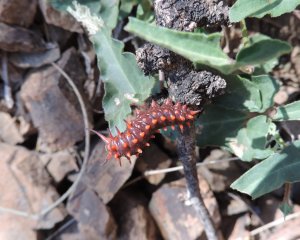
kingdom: Animalia
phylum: Arthropoda
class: Insecta
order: Lepidoptera
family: Papilionidae
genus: Battus
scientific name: Battus philenor
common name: Pipevine Swallowtail
